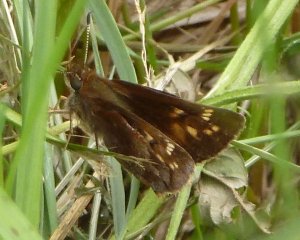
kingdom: Animalia
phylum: Arthropoda
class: Insecta
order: Lepidoptera
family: Hesperiidae
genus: Lon
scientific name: Lon hobomok
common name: Hobomok Skipper
